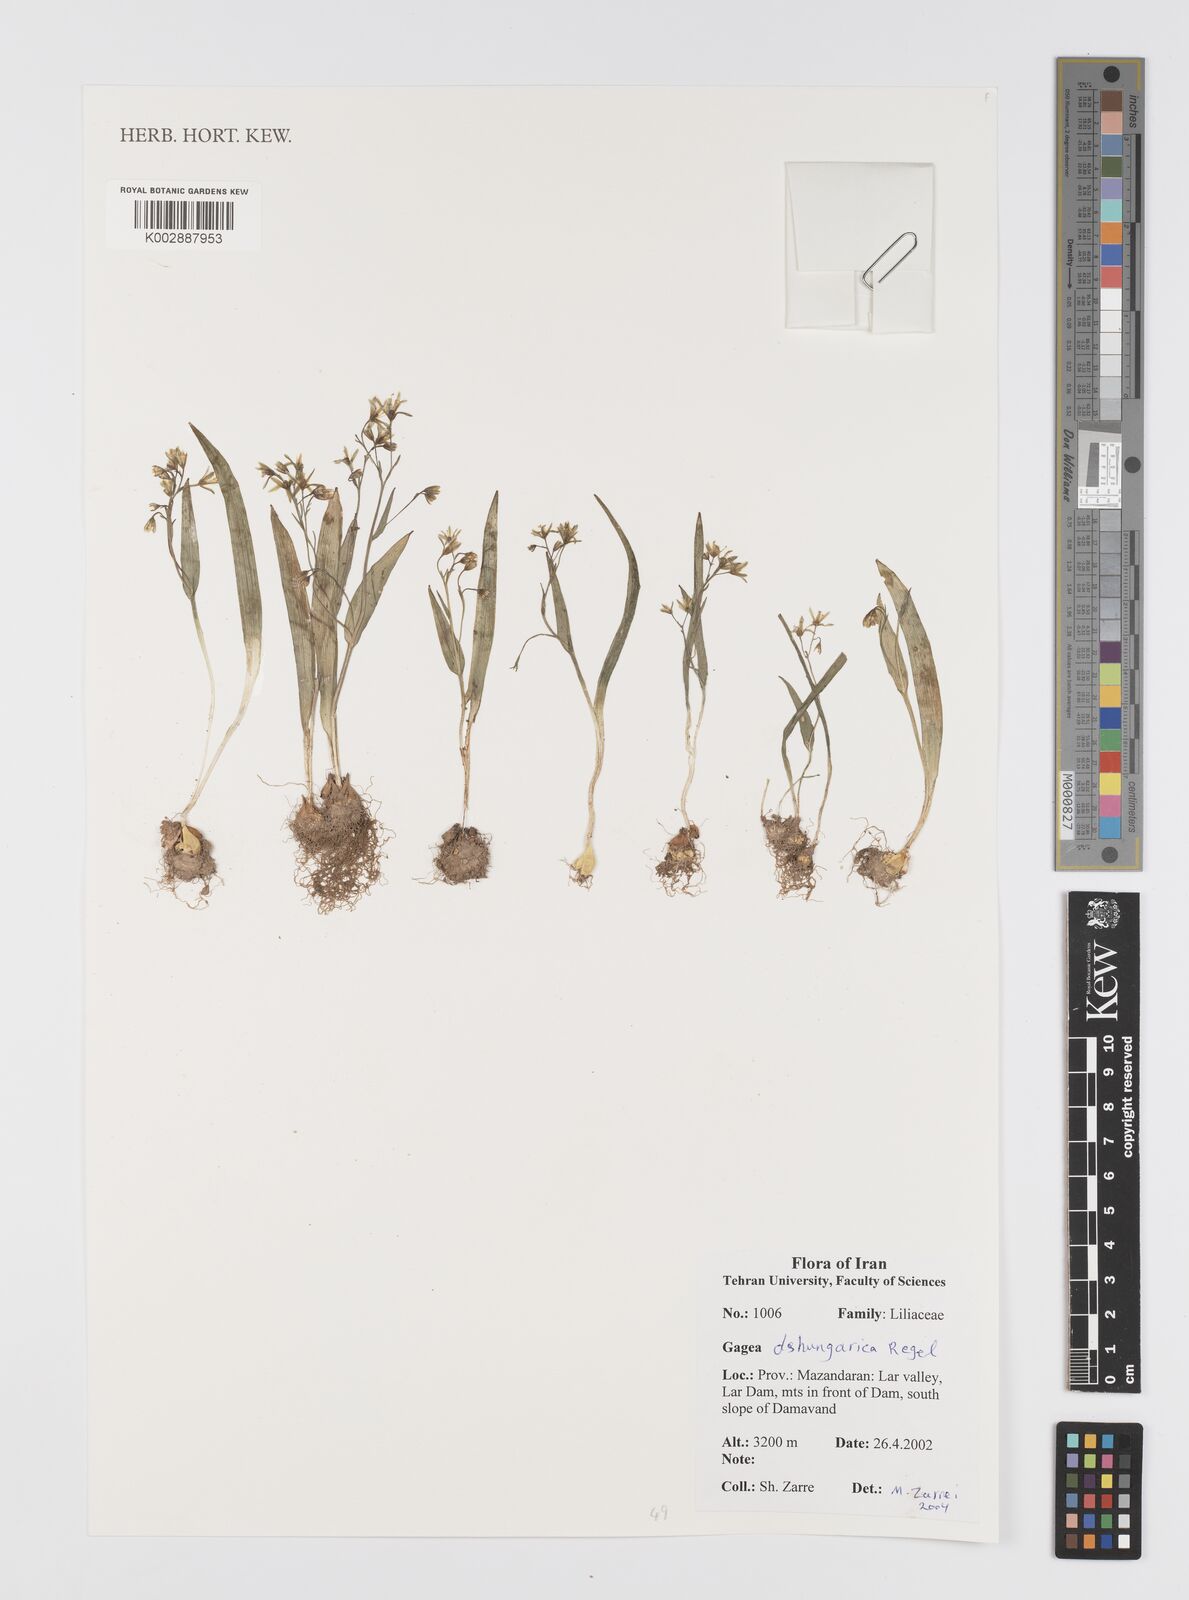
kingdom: Plantae
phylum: Tracheophyta
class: Liliopsida
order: Liliales
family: Liliaceae
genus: Gagea
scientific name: Gagea dschungarica
